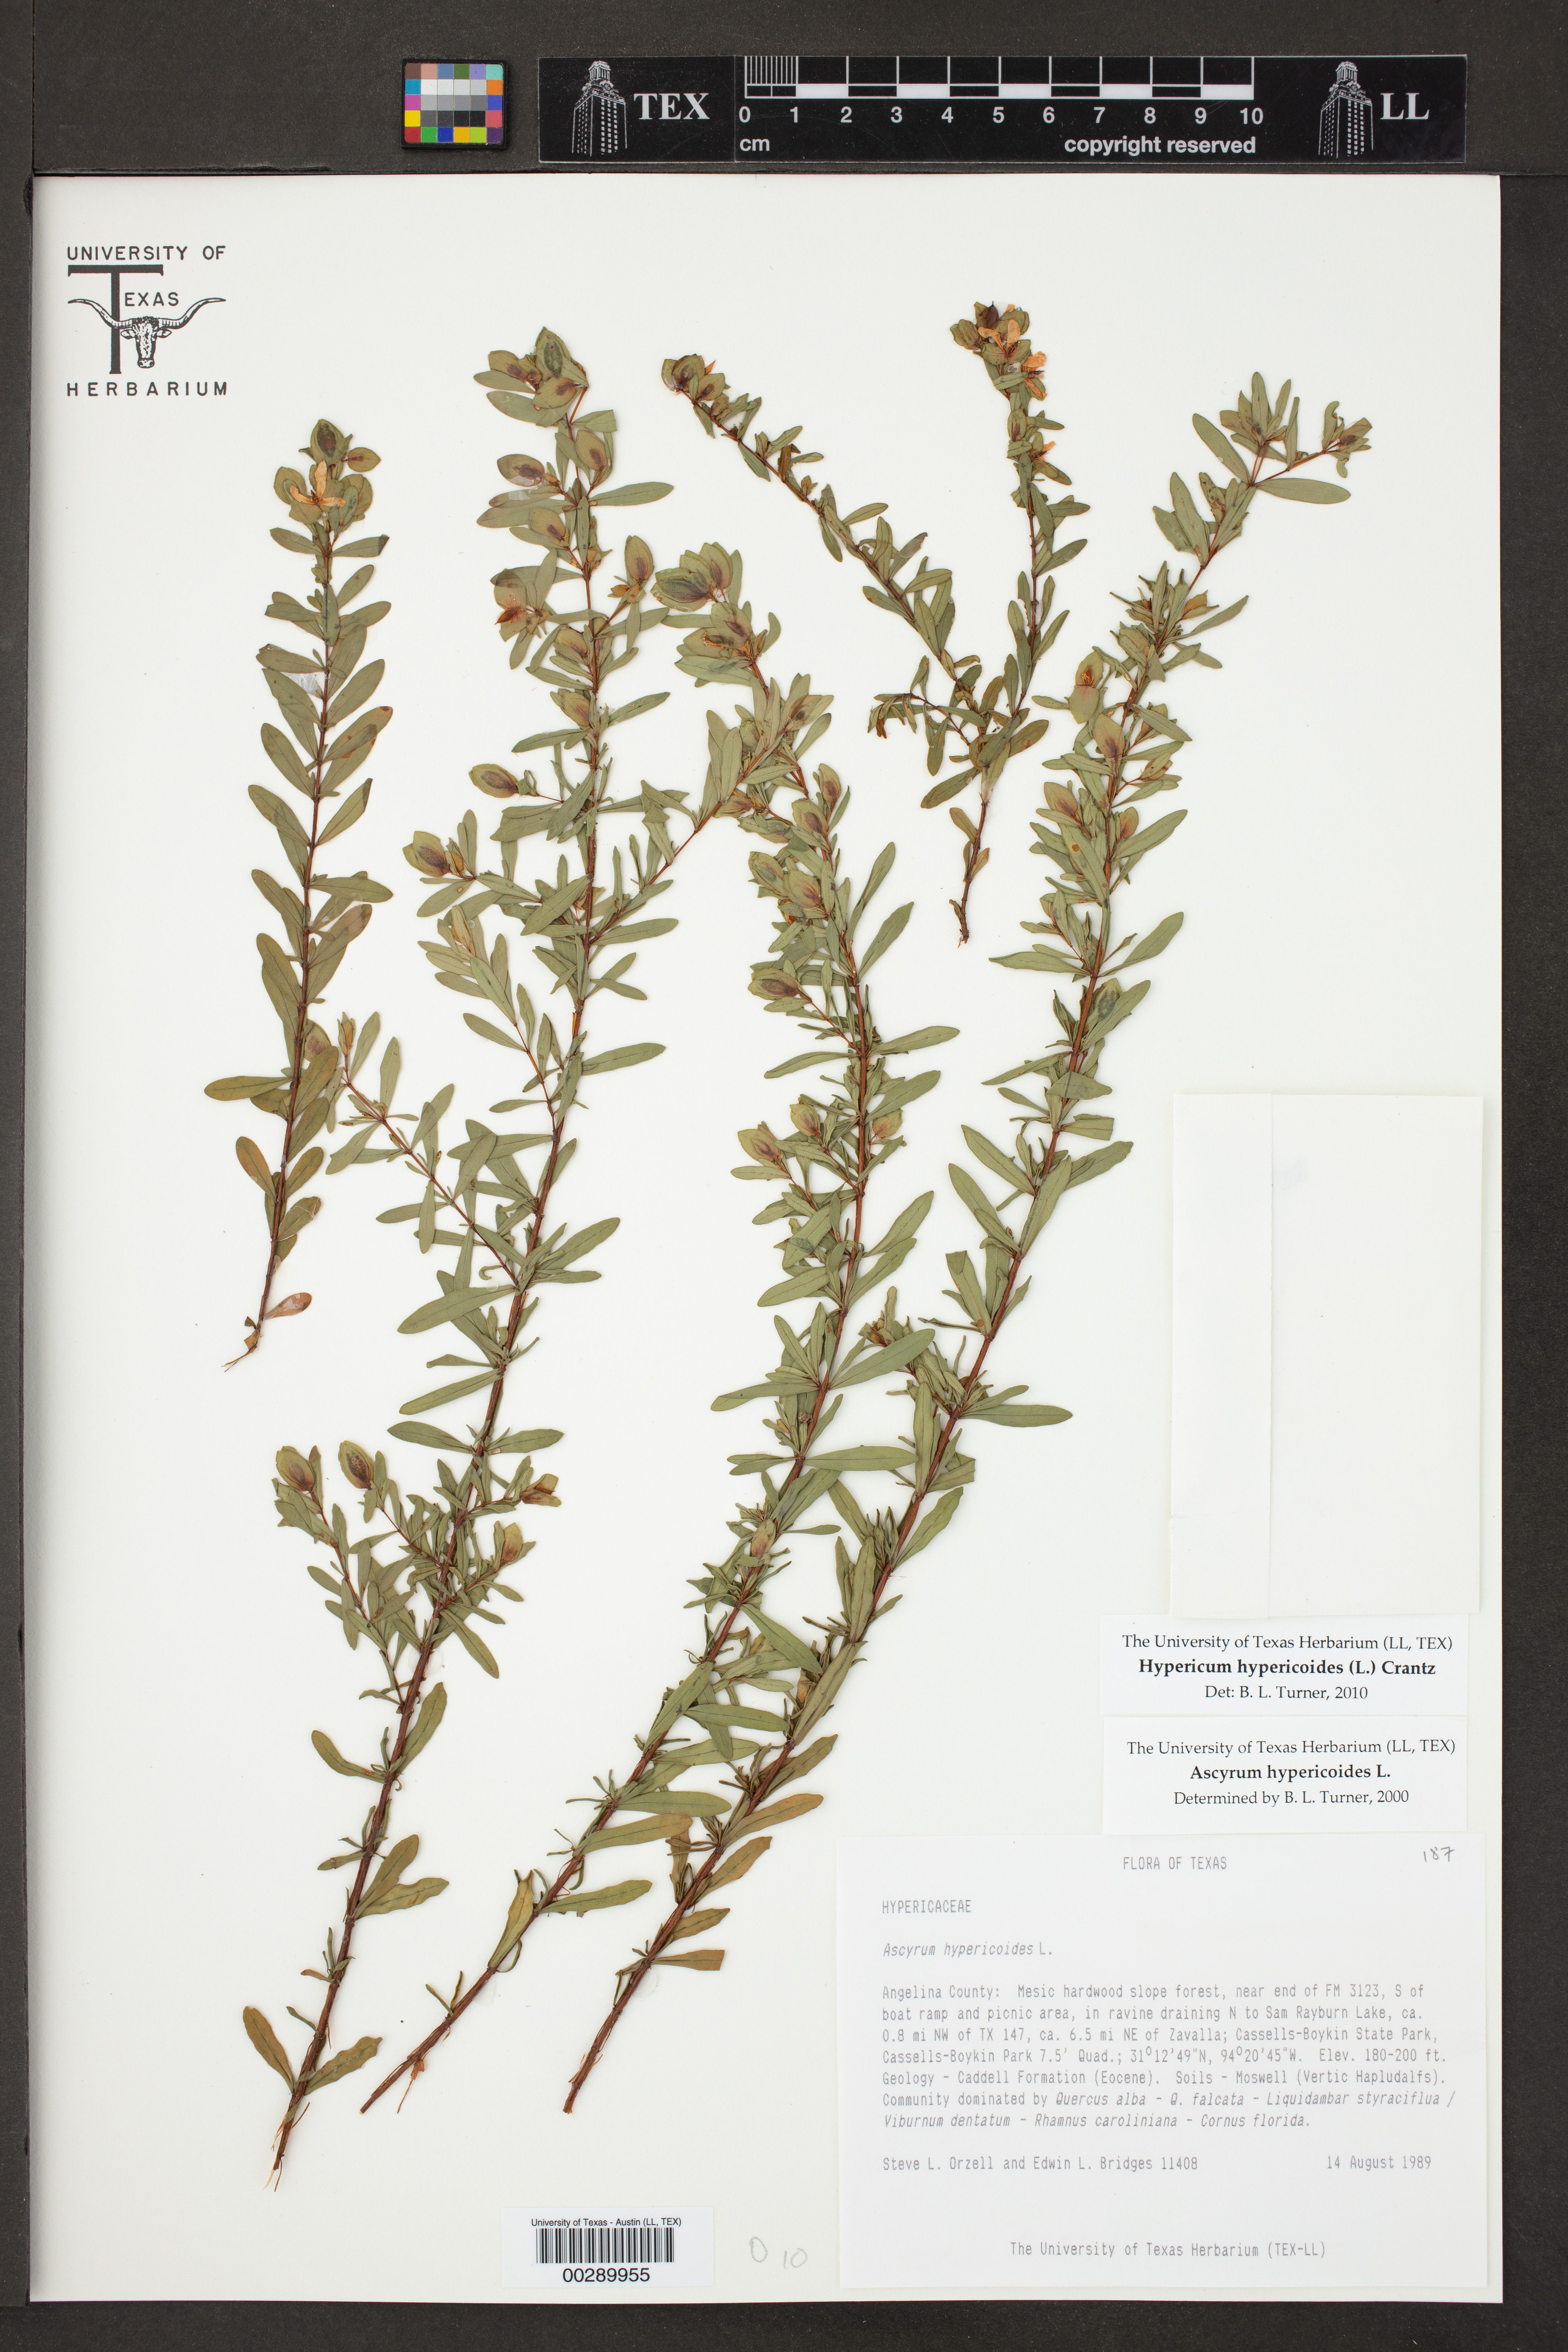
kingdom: Plantae
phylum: Tracheophyta
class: Magnoliopsida
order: Malpighiales
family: Hypericaceae
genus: Hypericum
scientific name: Hypericum hypericoides
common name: St. andrew's cross
